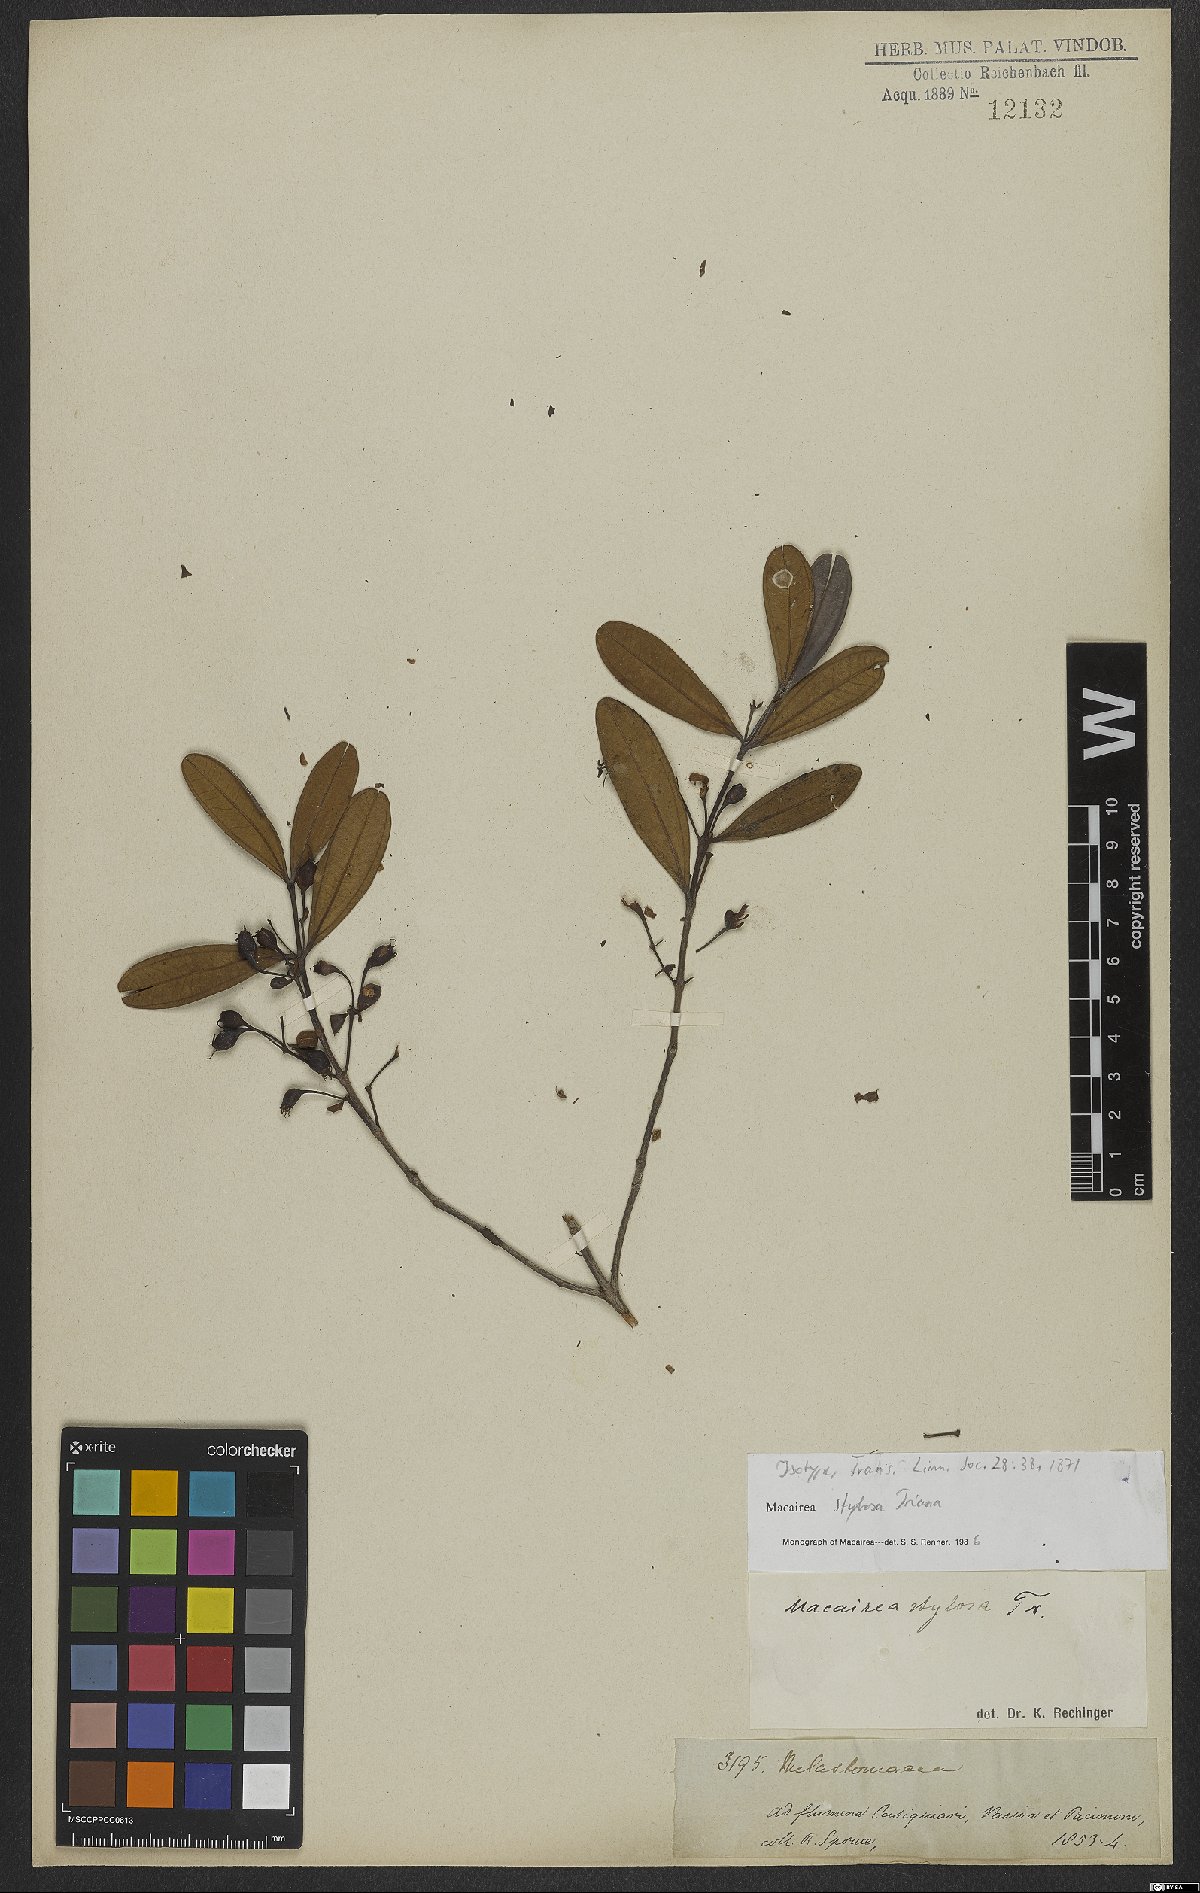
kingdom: Plantae
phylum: Tracheophyta
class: Magnoliopsida
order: Myrtales
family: Melastomataceae
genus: Macairea
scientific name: Macairea stylosa
